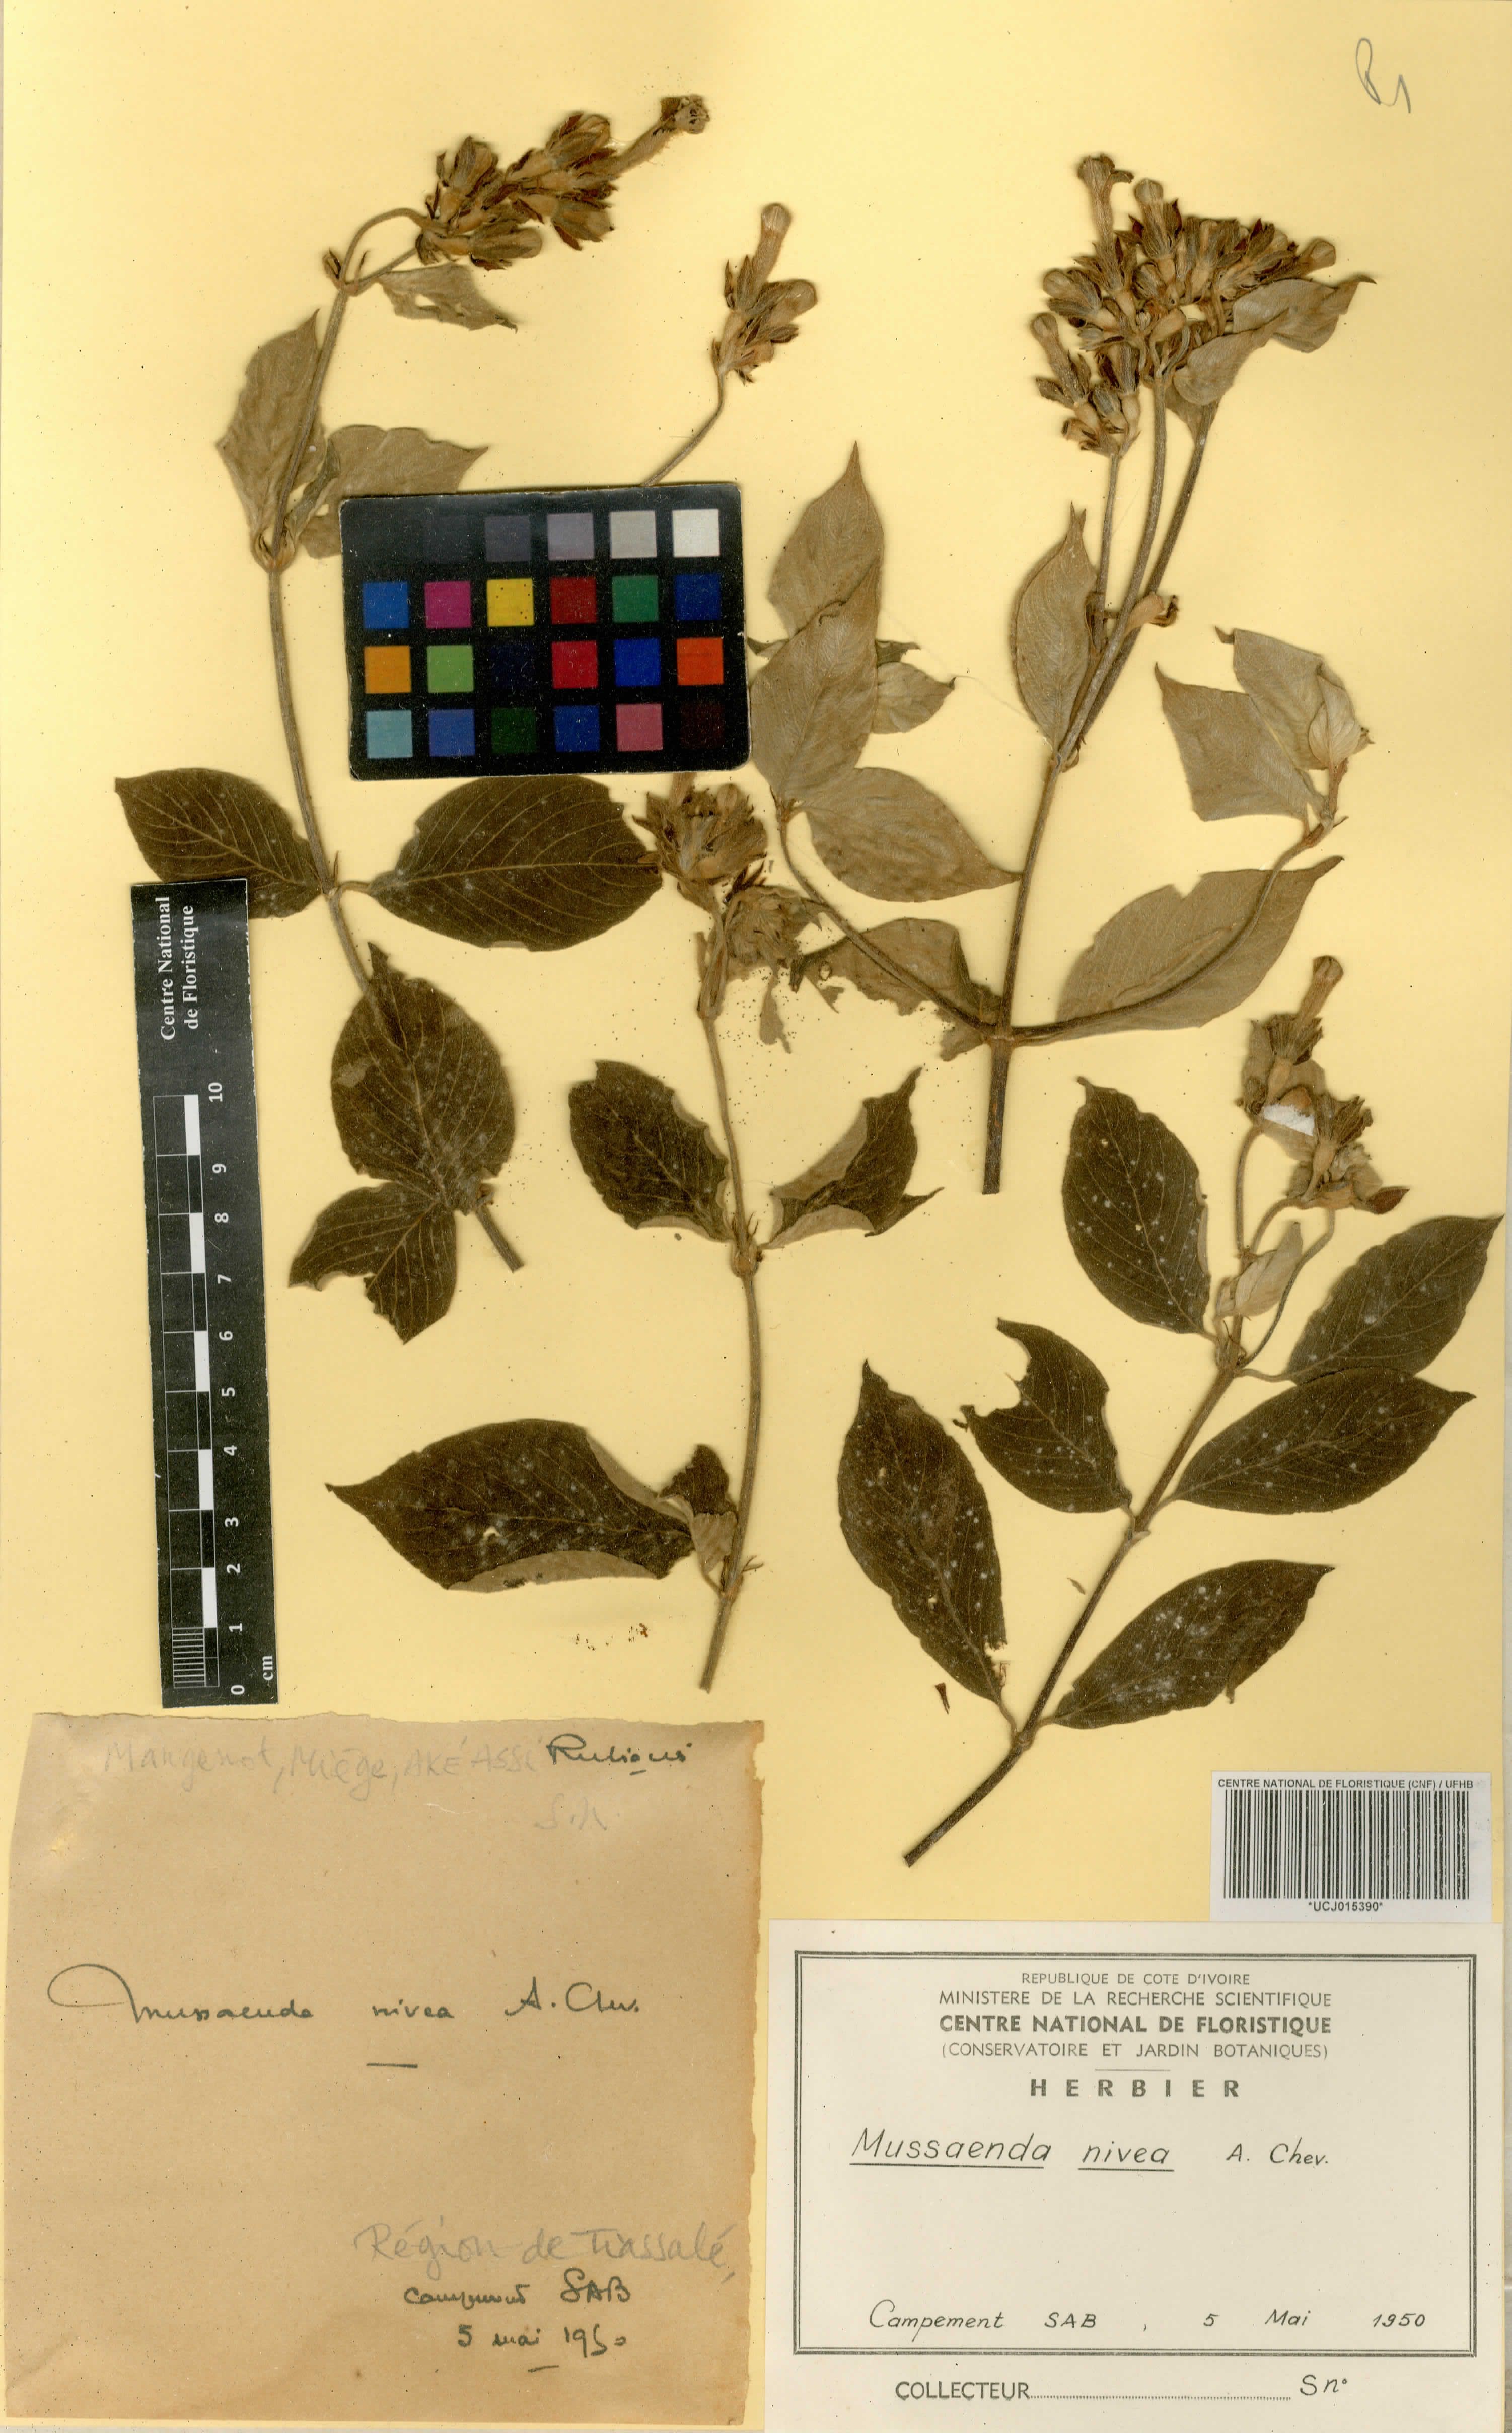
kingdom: Plantae
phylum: Tracheophyta
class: Magnoliopsida
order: Gentianales
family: Rubiaceae
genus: Mussaenda
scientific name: Mussaenda nivea
